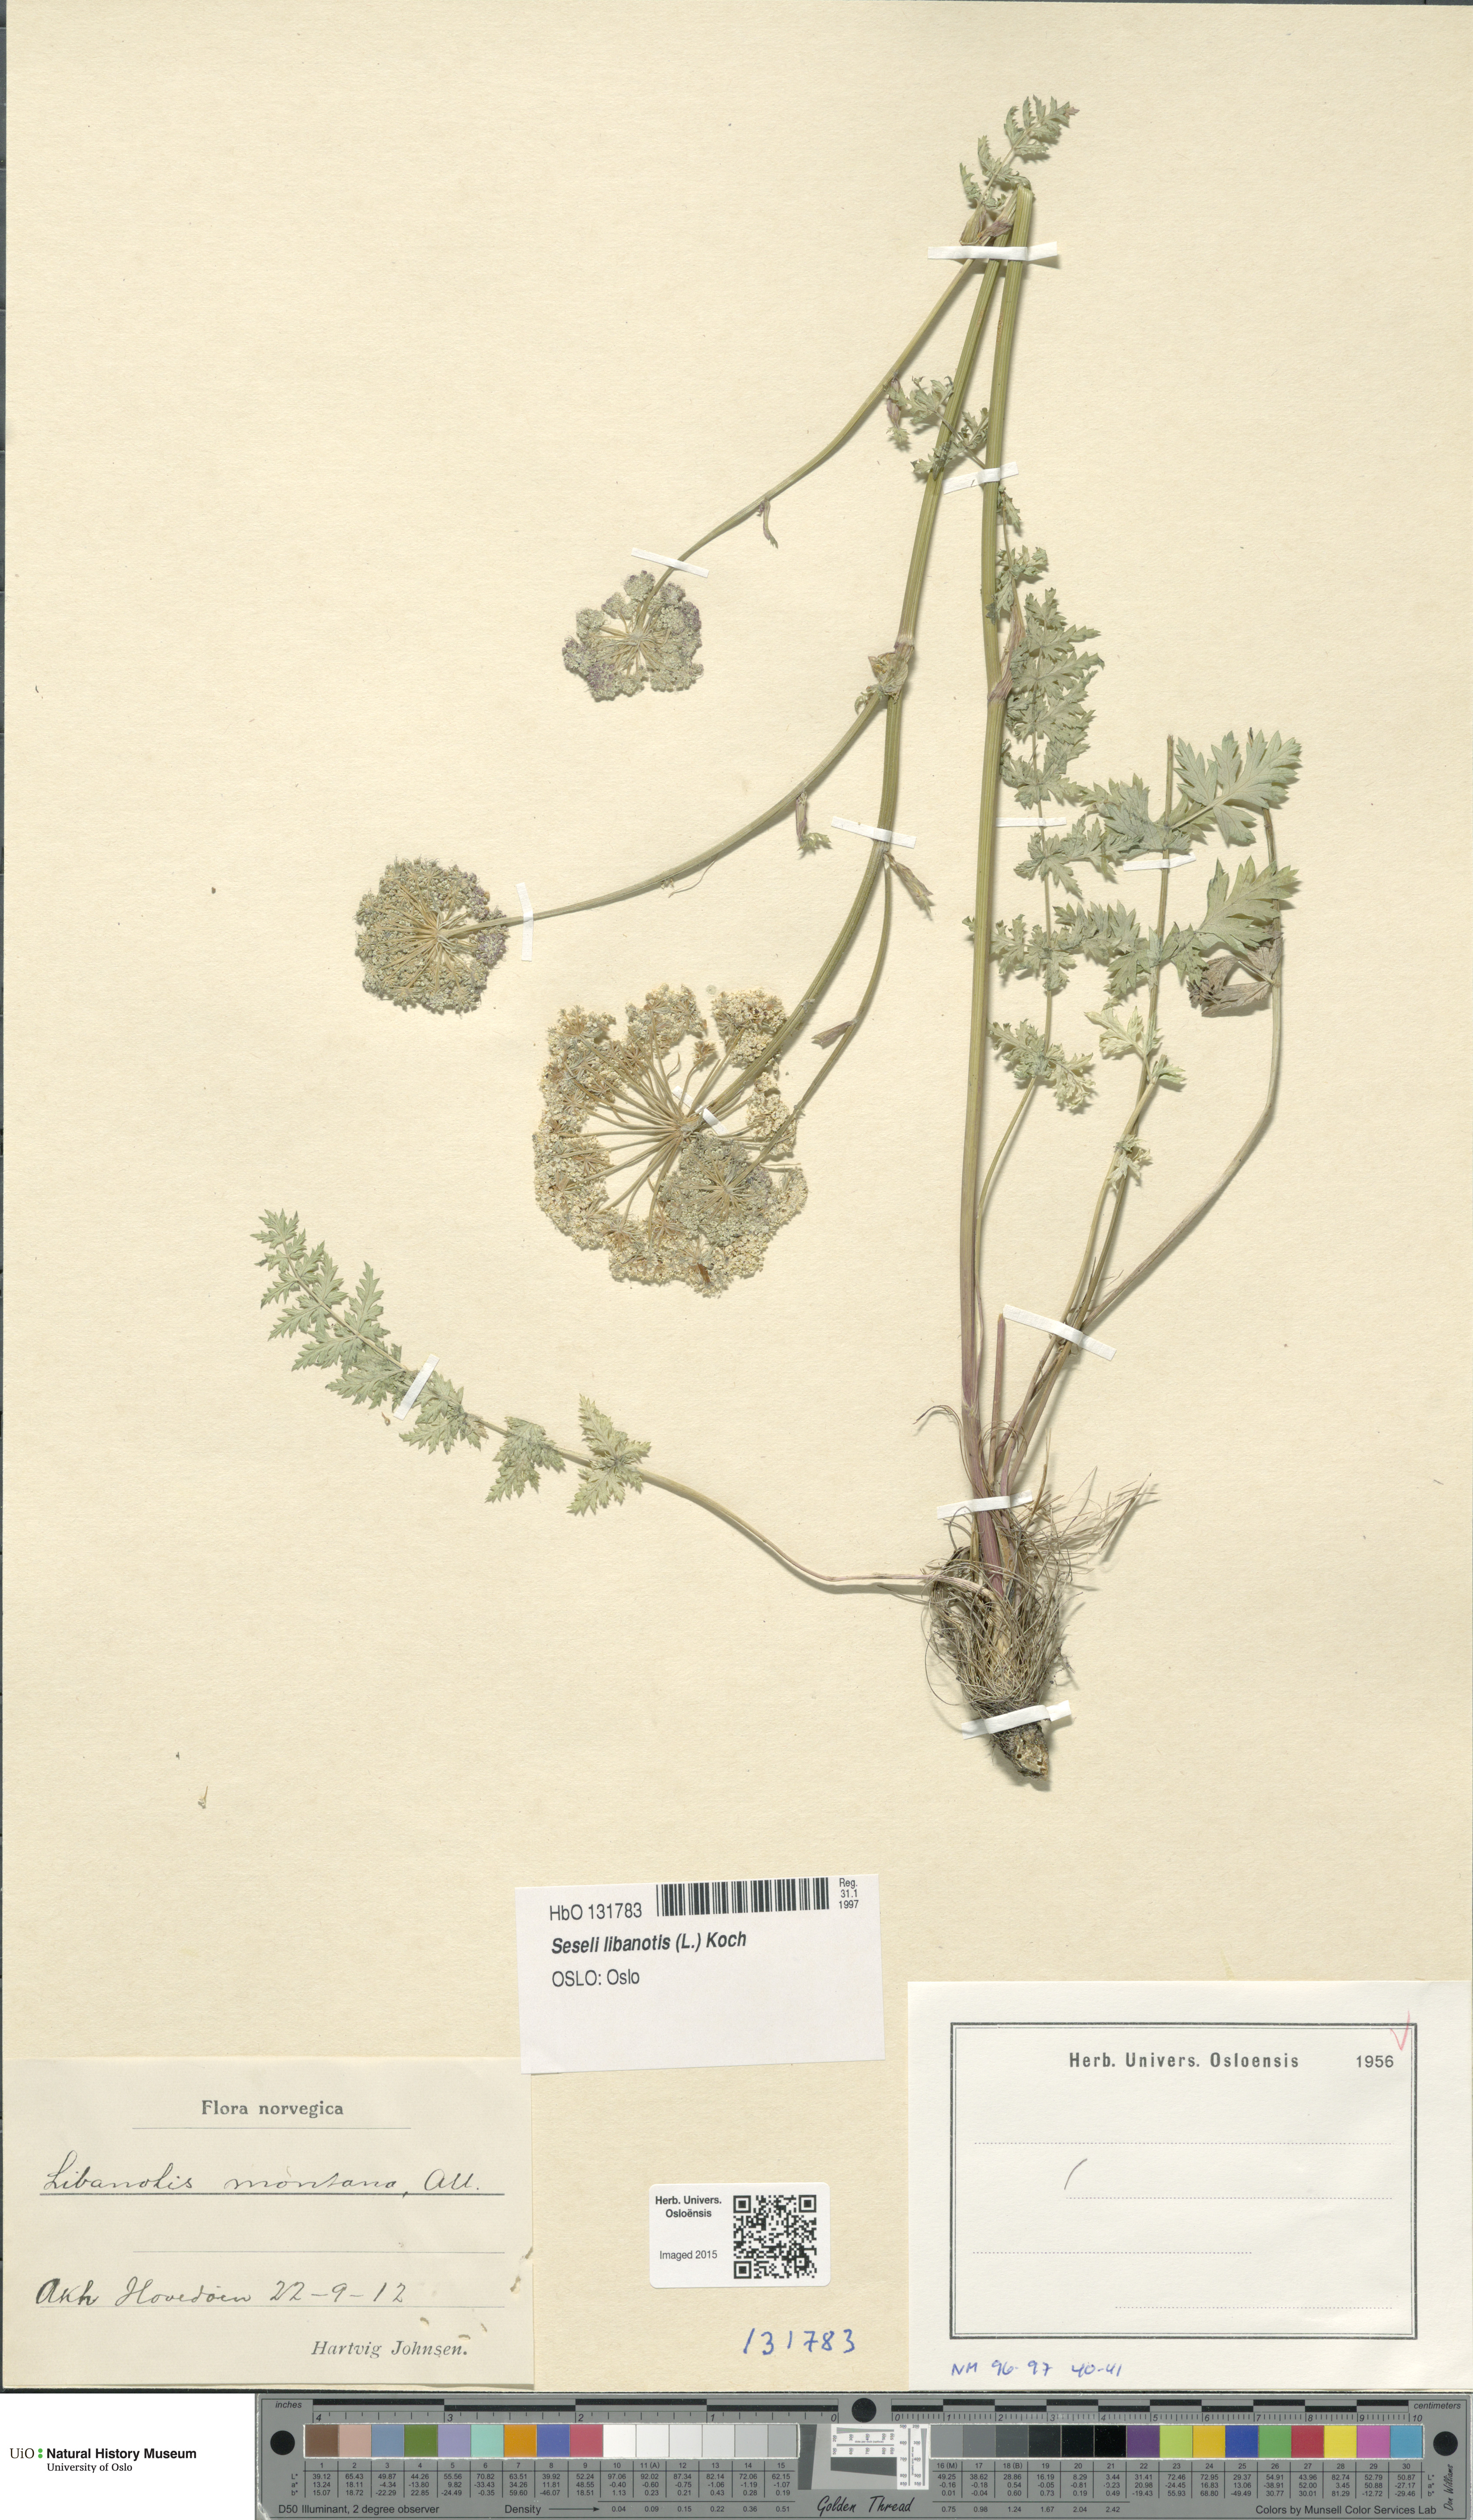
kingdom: Plantae
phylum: Tracheophyta
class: Magnoliopsida
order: Apiales
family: Apiaceae
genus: Seseli
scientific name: Seseli libanotis
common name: Mooncarrot
